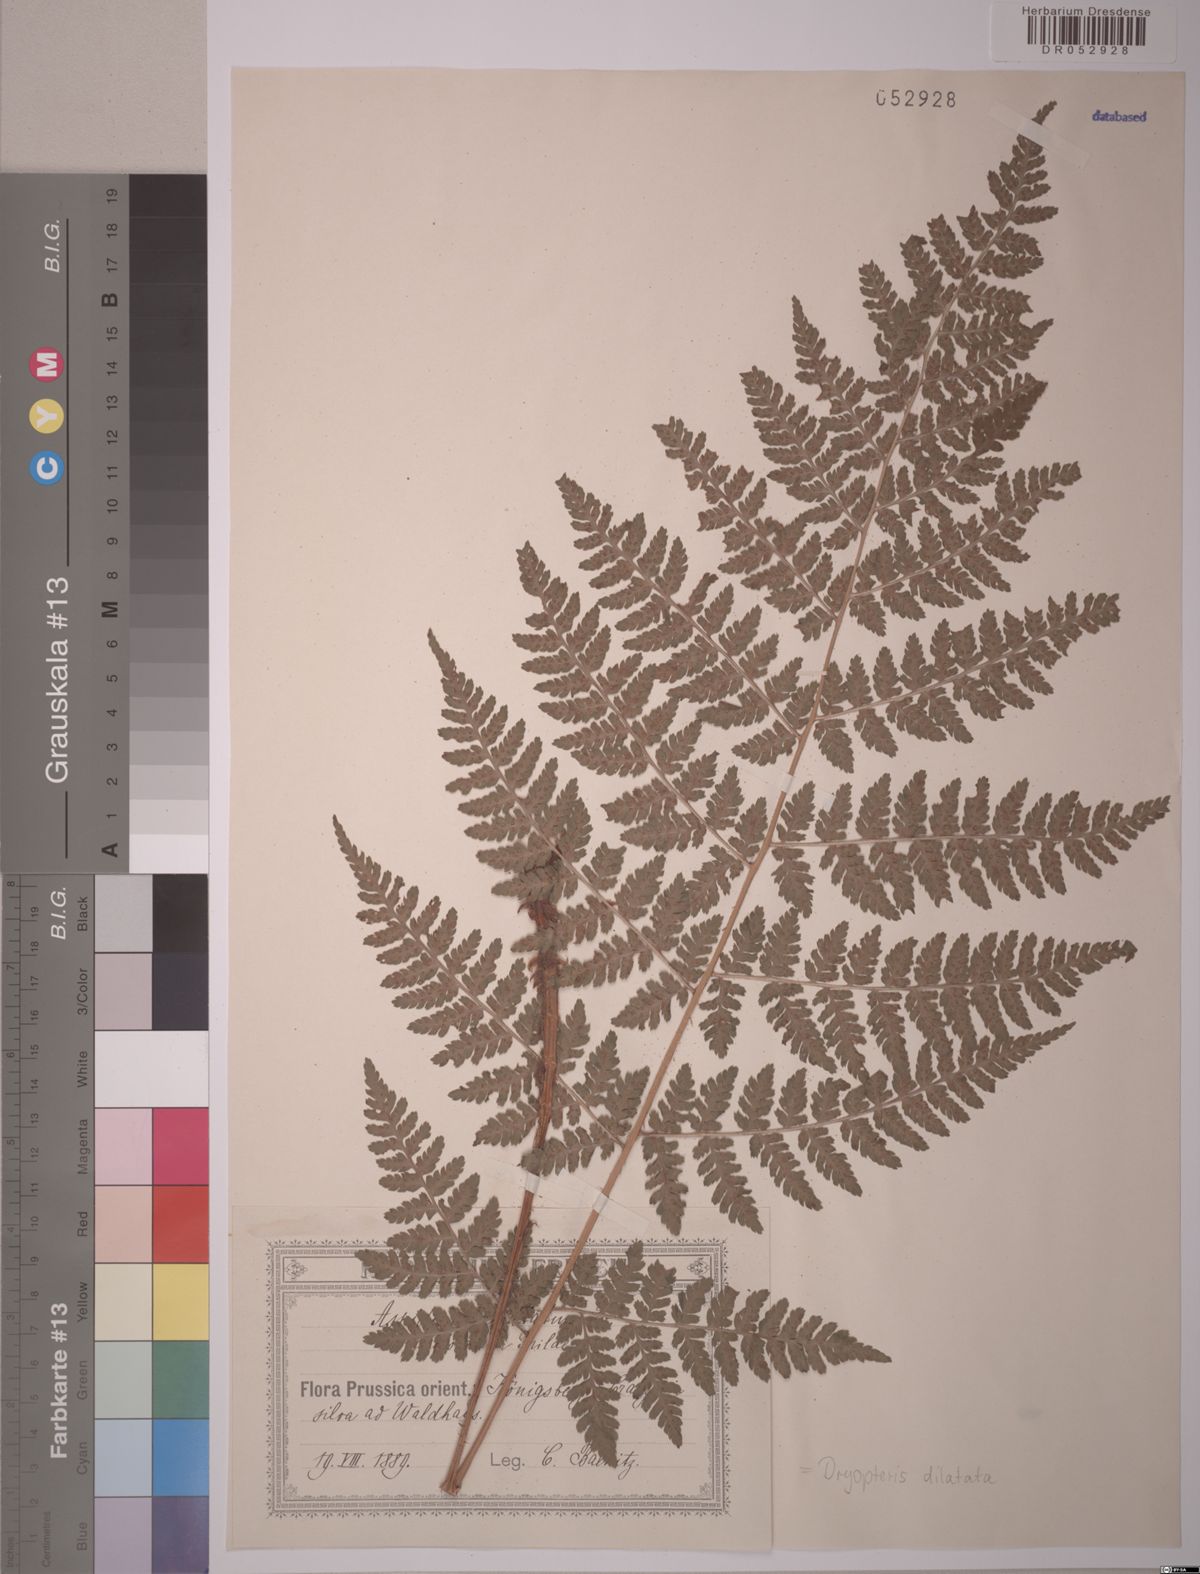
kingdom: Plantae
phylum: Tracheophyta
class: Polypodiopsida
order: Polypodiales
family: Dryopteridaceae
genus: Dryopteris
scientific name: Dryopteris dilatata
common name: Broad buckler-fern
